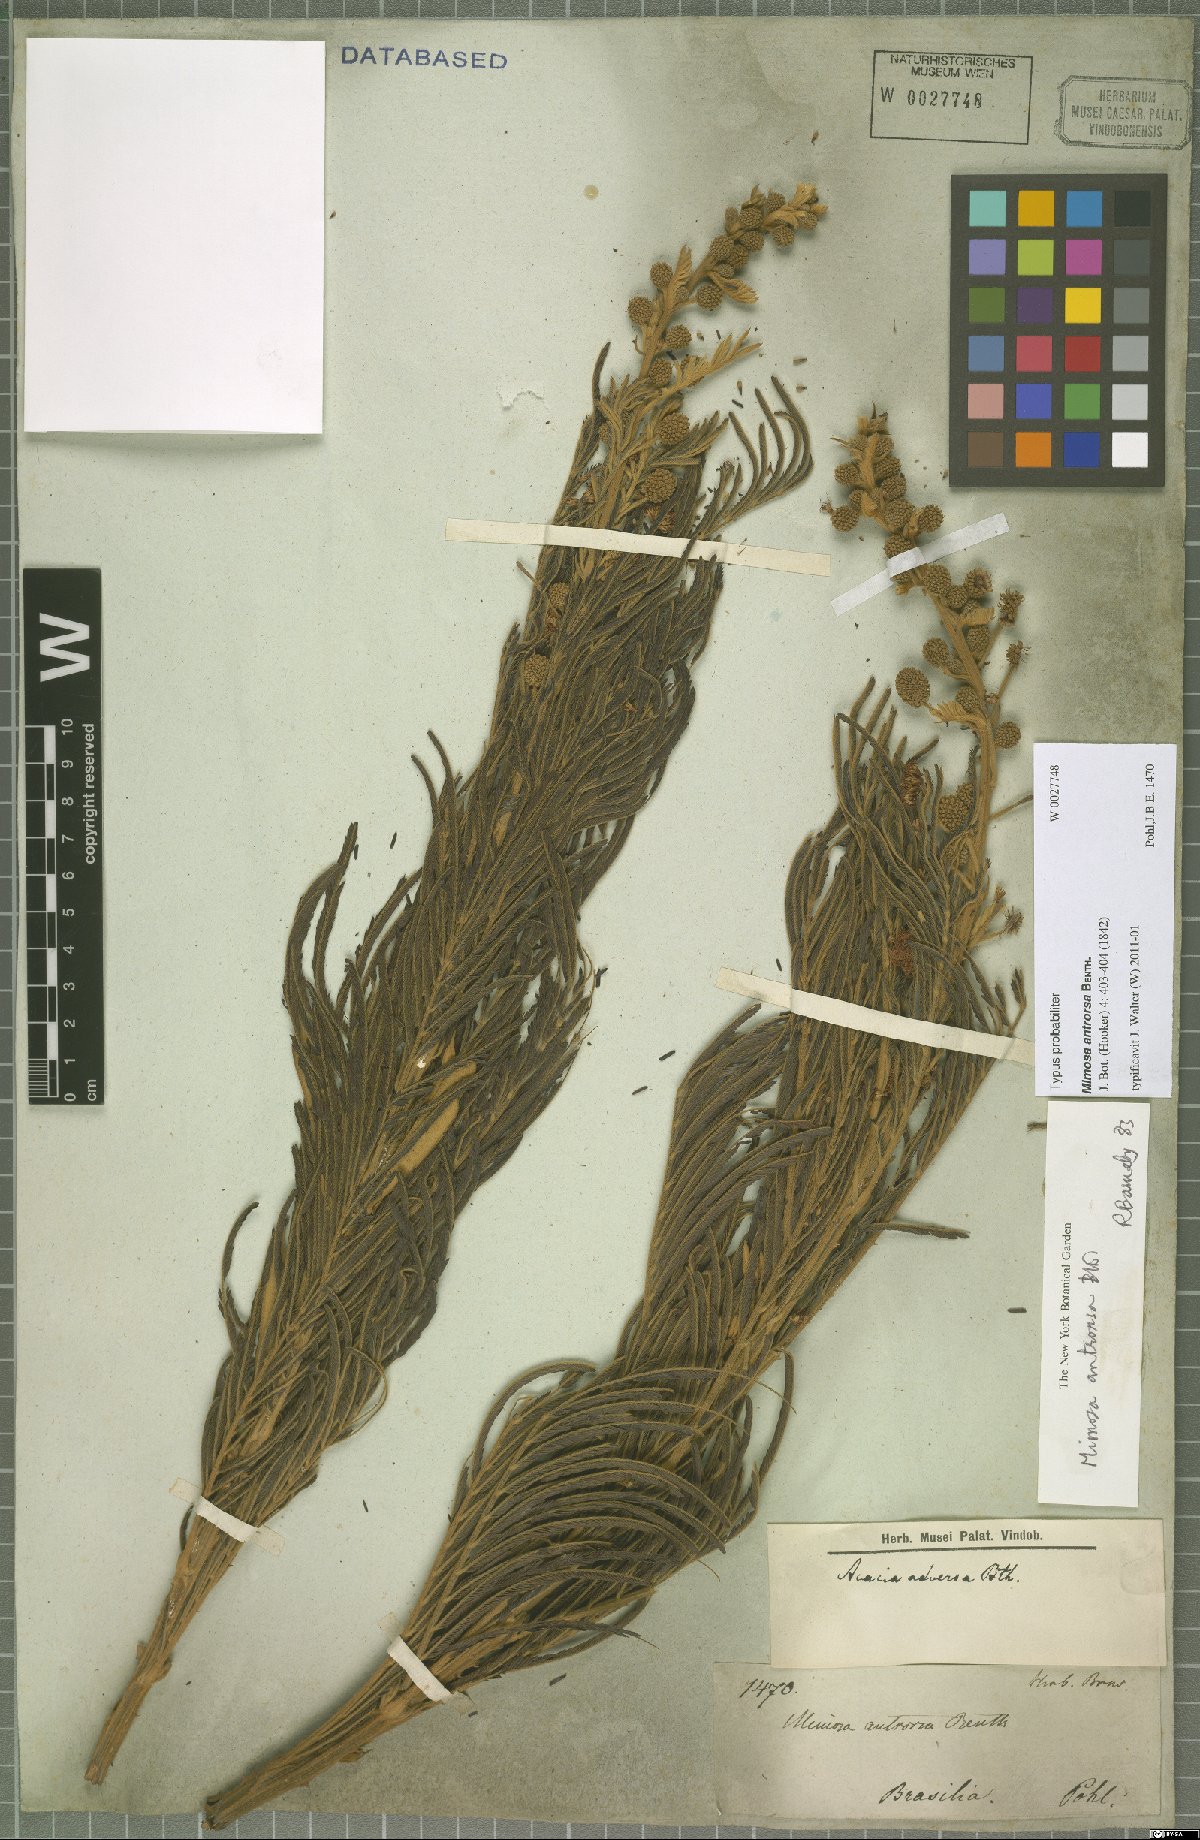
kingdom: Plantae
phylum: Tracheophyta
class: Magnoliopsida
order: Fabales
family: Fabaceae
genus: Mimosa
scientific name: Mimosa antrorsa
